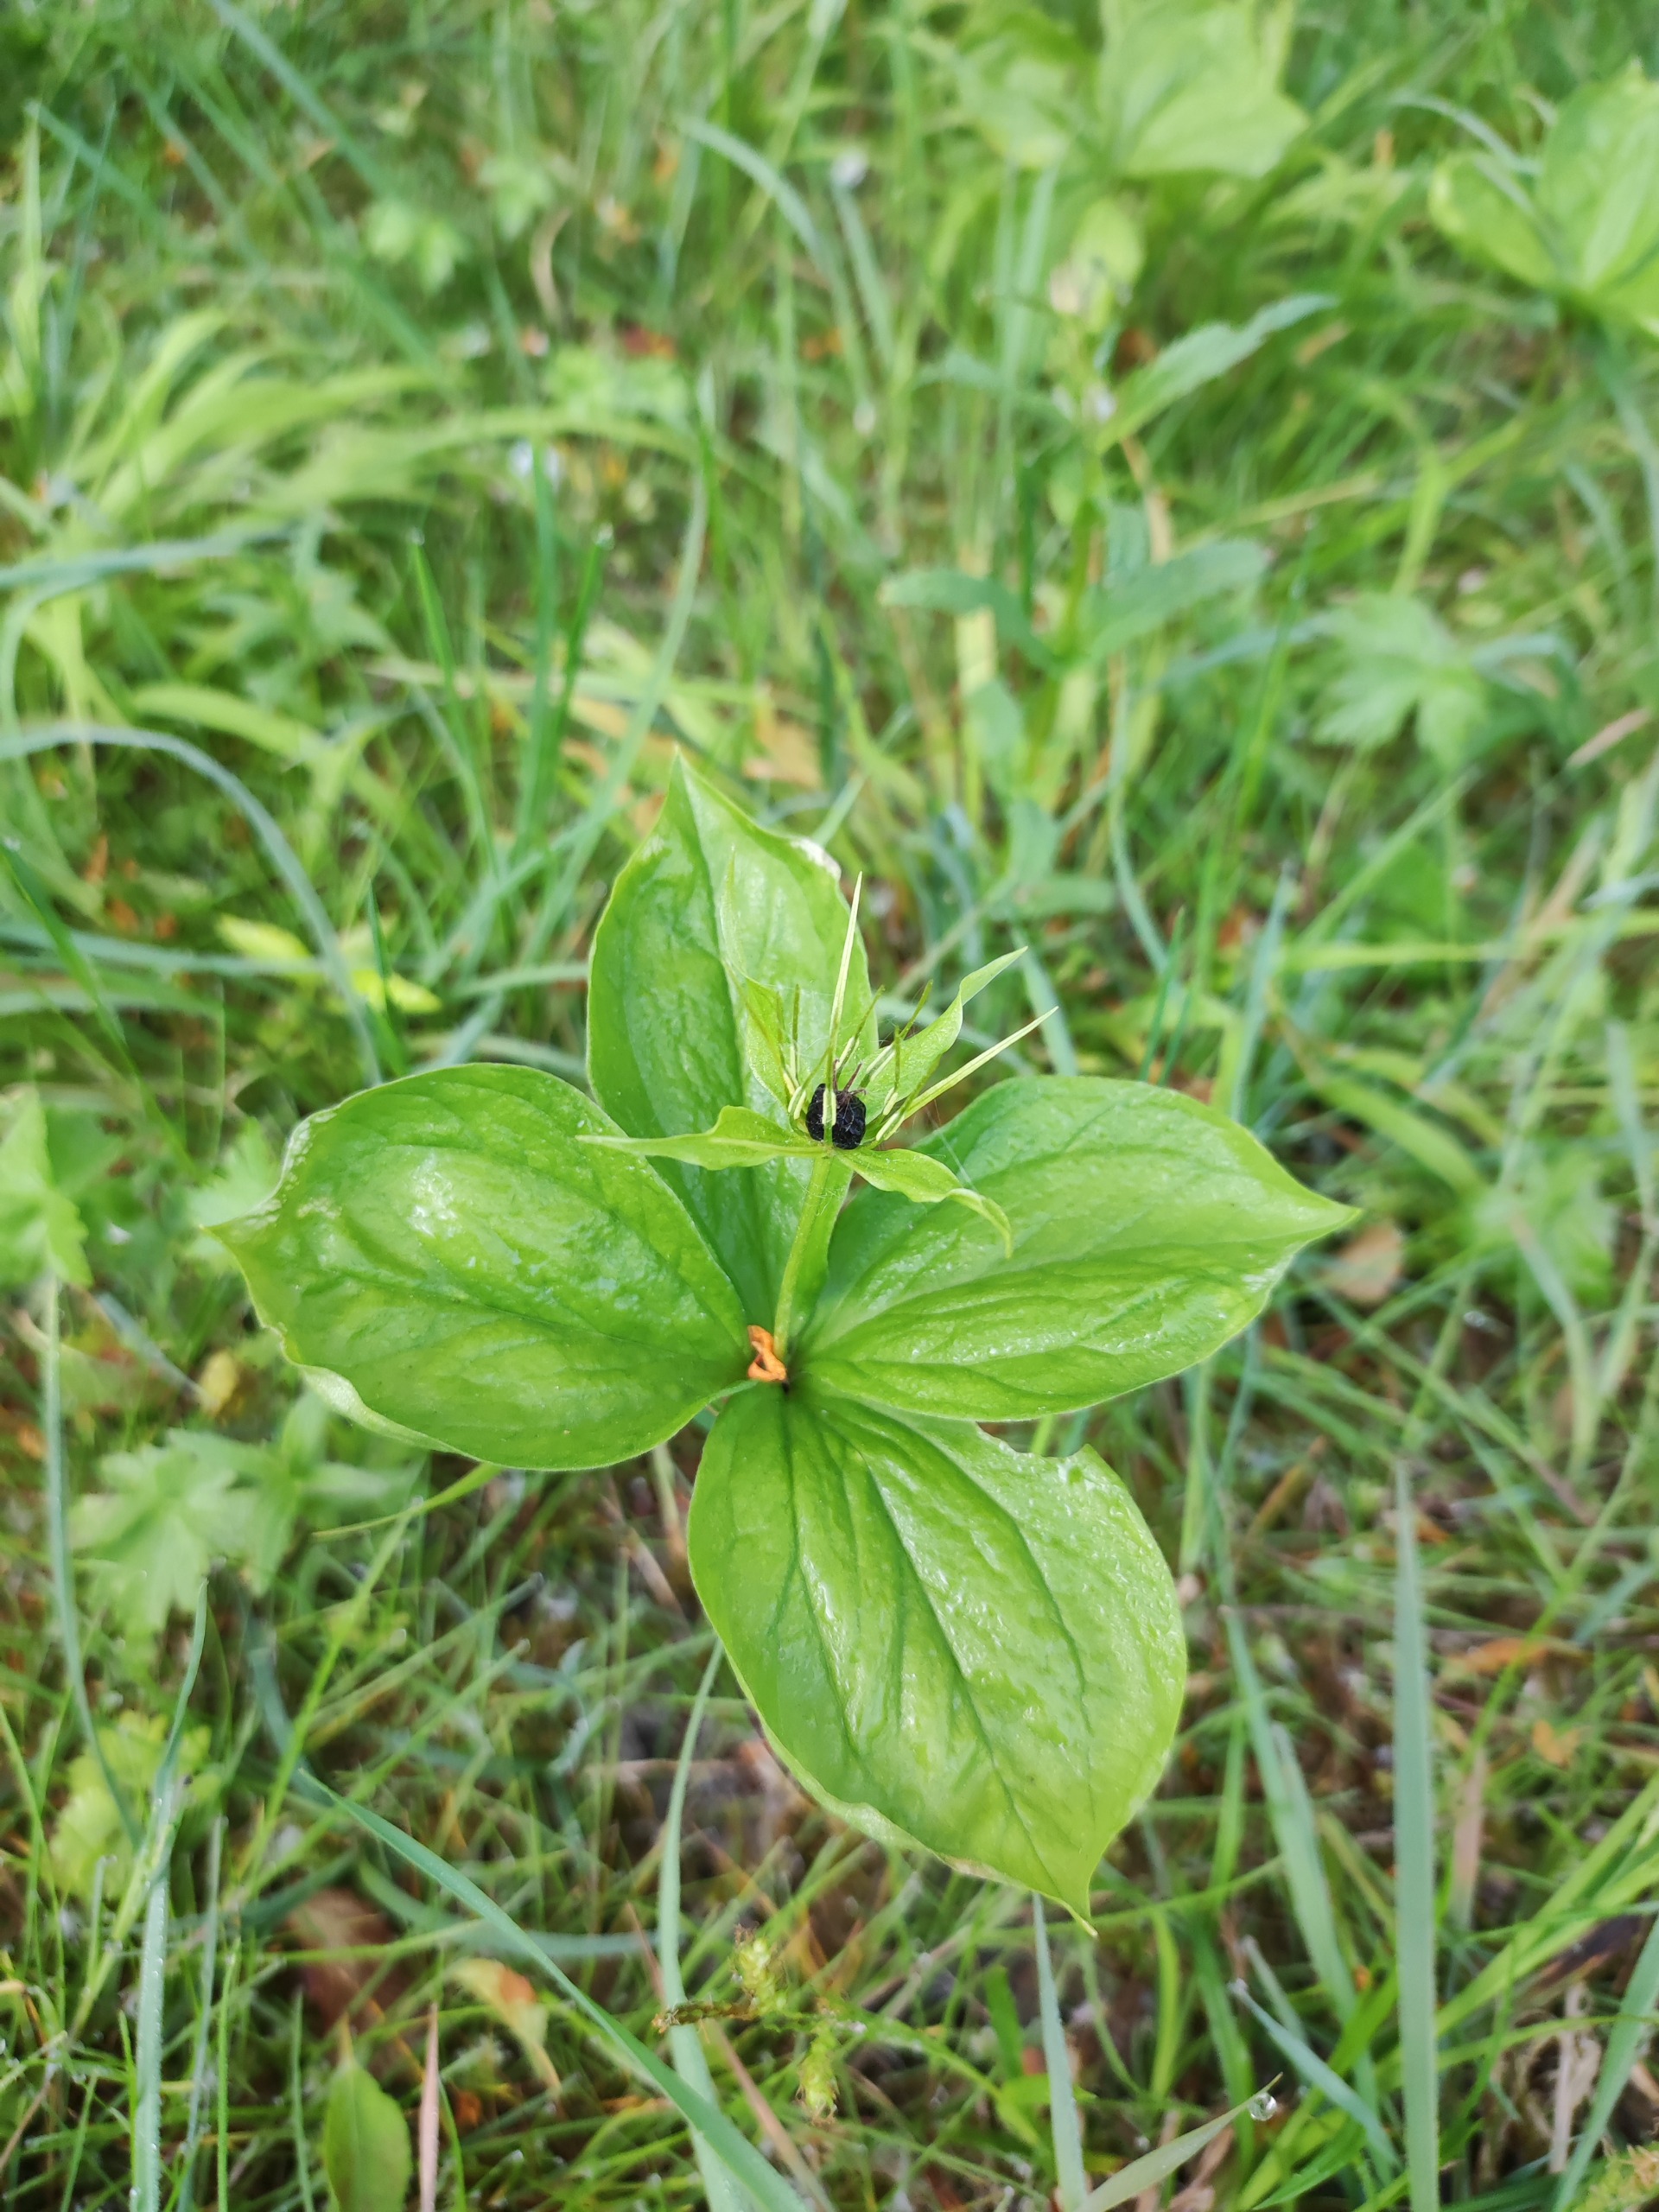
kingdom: Plantae
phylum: Tracheophyta
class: Liliopsida
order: Liliales
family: Melanthiaceae
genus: Paris
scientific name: Paris quadrifolia
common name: Firblad
